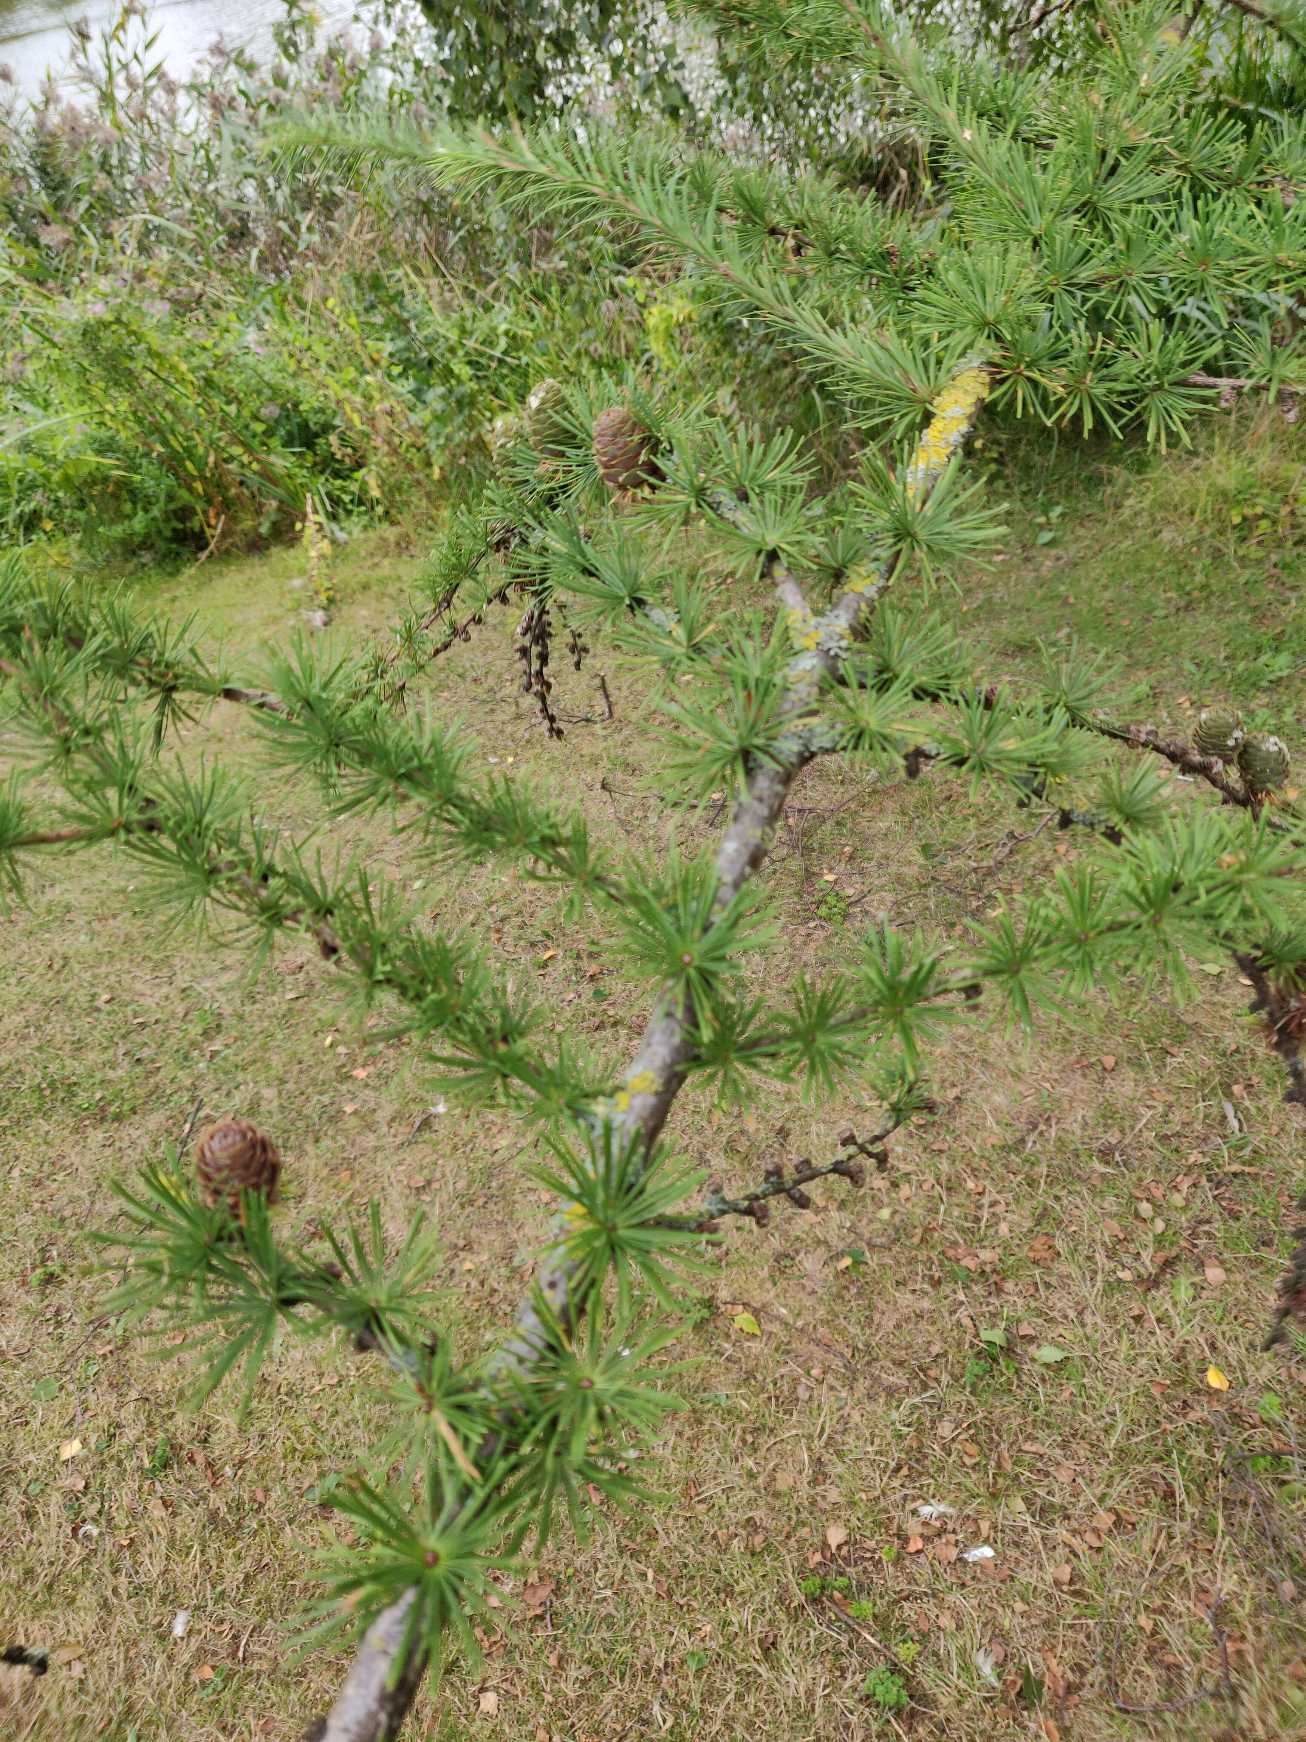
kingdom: Plantae
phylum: Tracheophyta
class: Pinopsida
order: Pinales
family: Pinaceae
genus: Larix
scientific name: Larix
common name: Lærkeslægten
